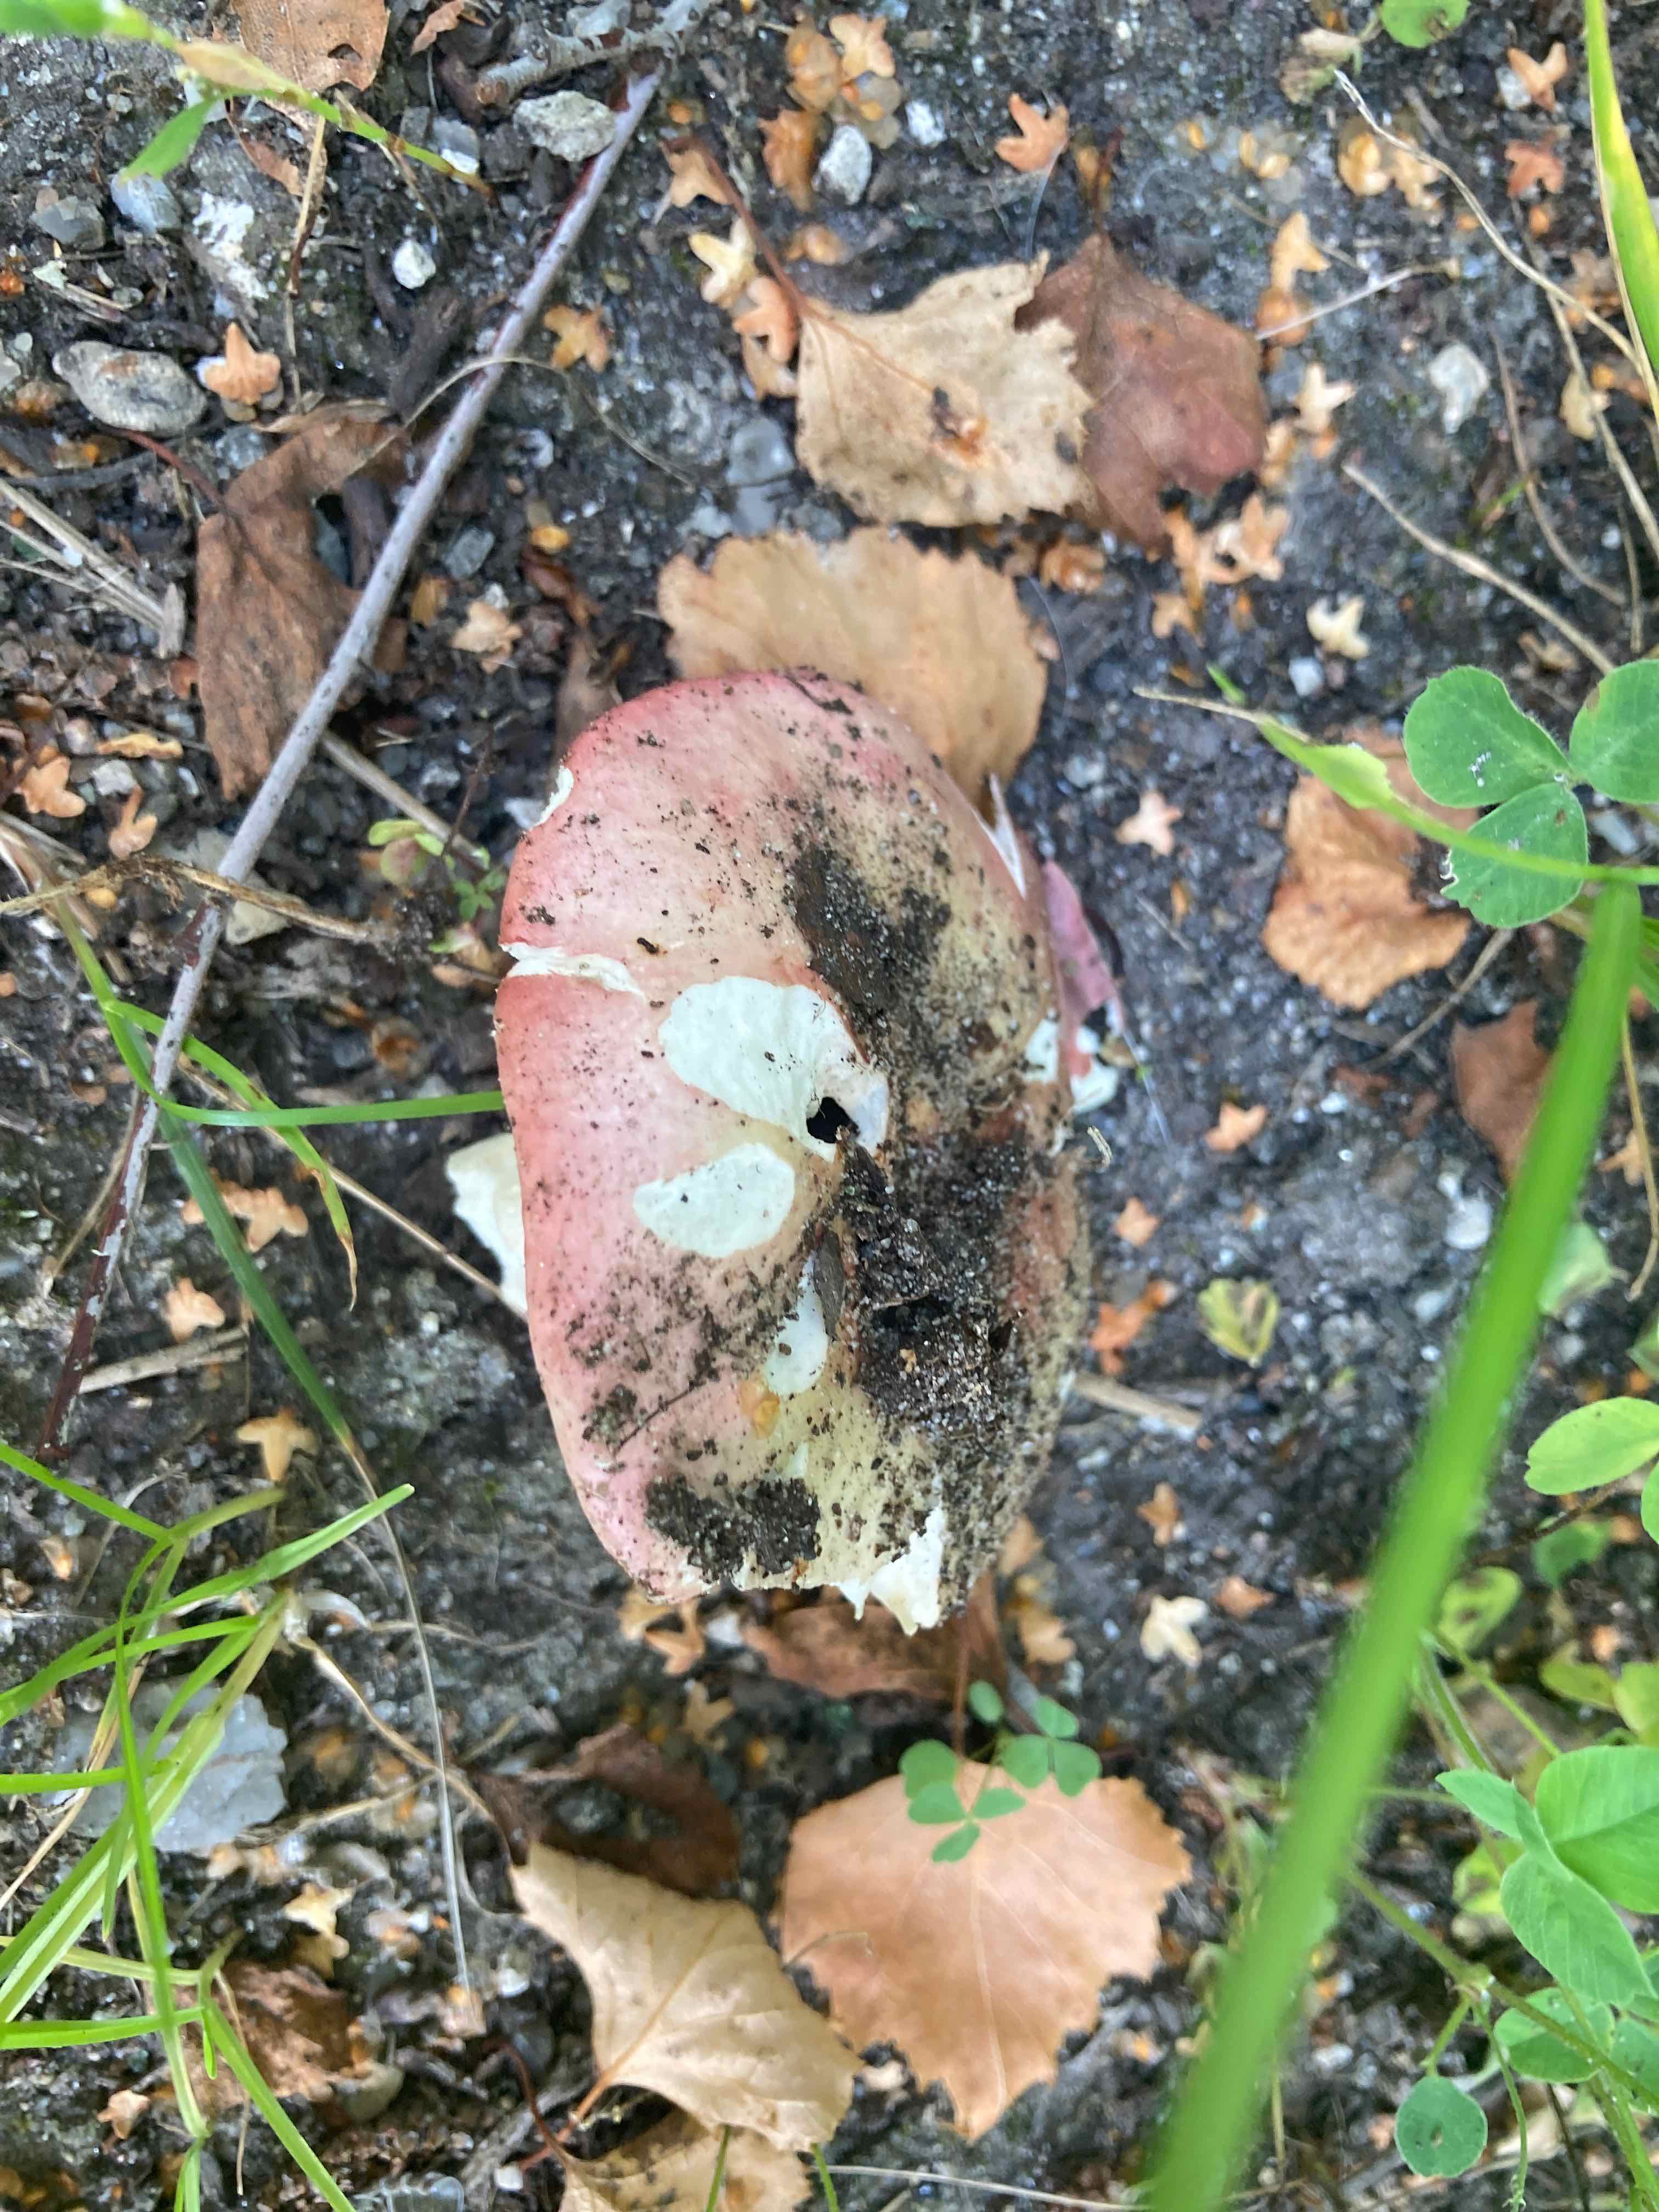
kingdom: Fungi
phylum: Basidiomycota
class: Agaricomycetes
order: Russulales
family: Russulaceae
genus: Russula
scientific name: Russula depallens
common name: falmende skørhat
